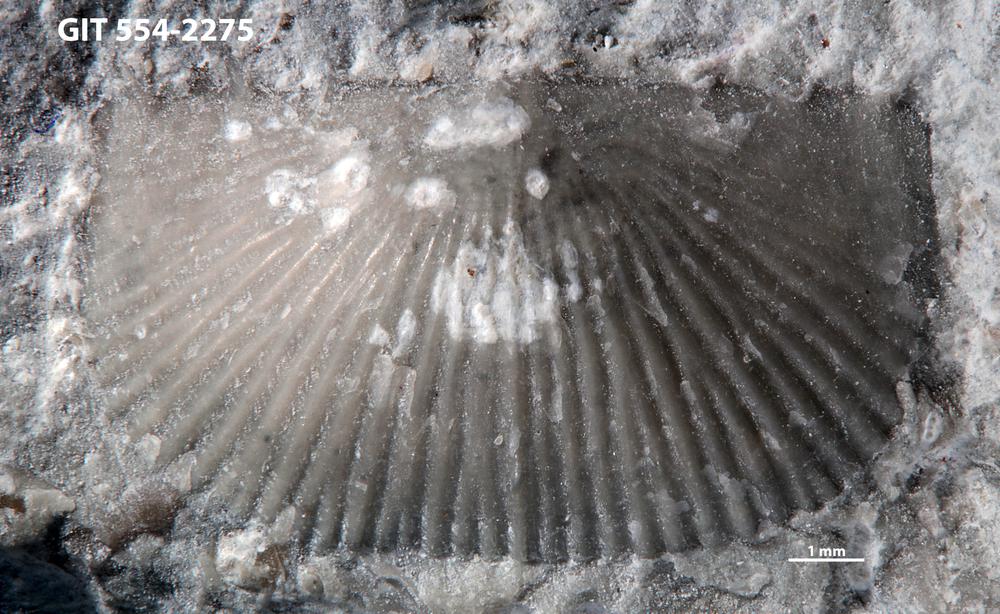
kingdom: Animalia
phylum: Brachiopoda
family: Strophochonetidae
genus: Protochonetes
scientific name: Protochonetes piltenensis
